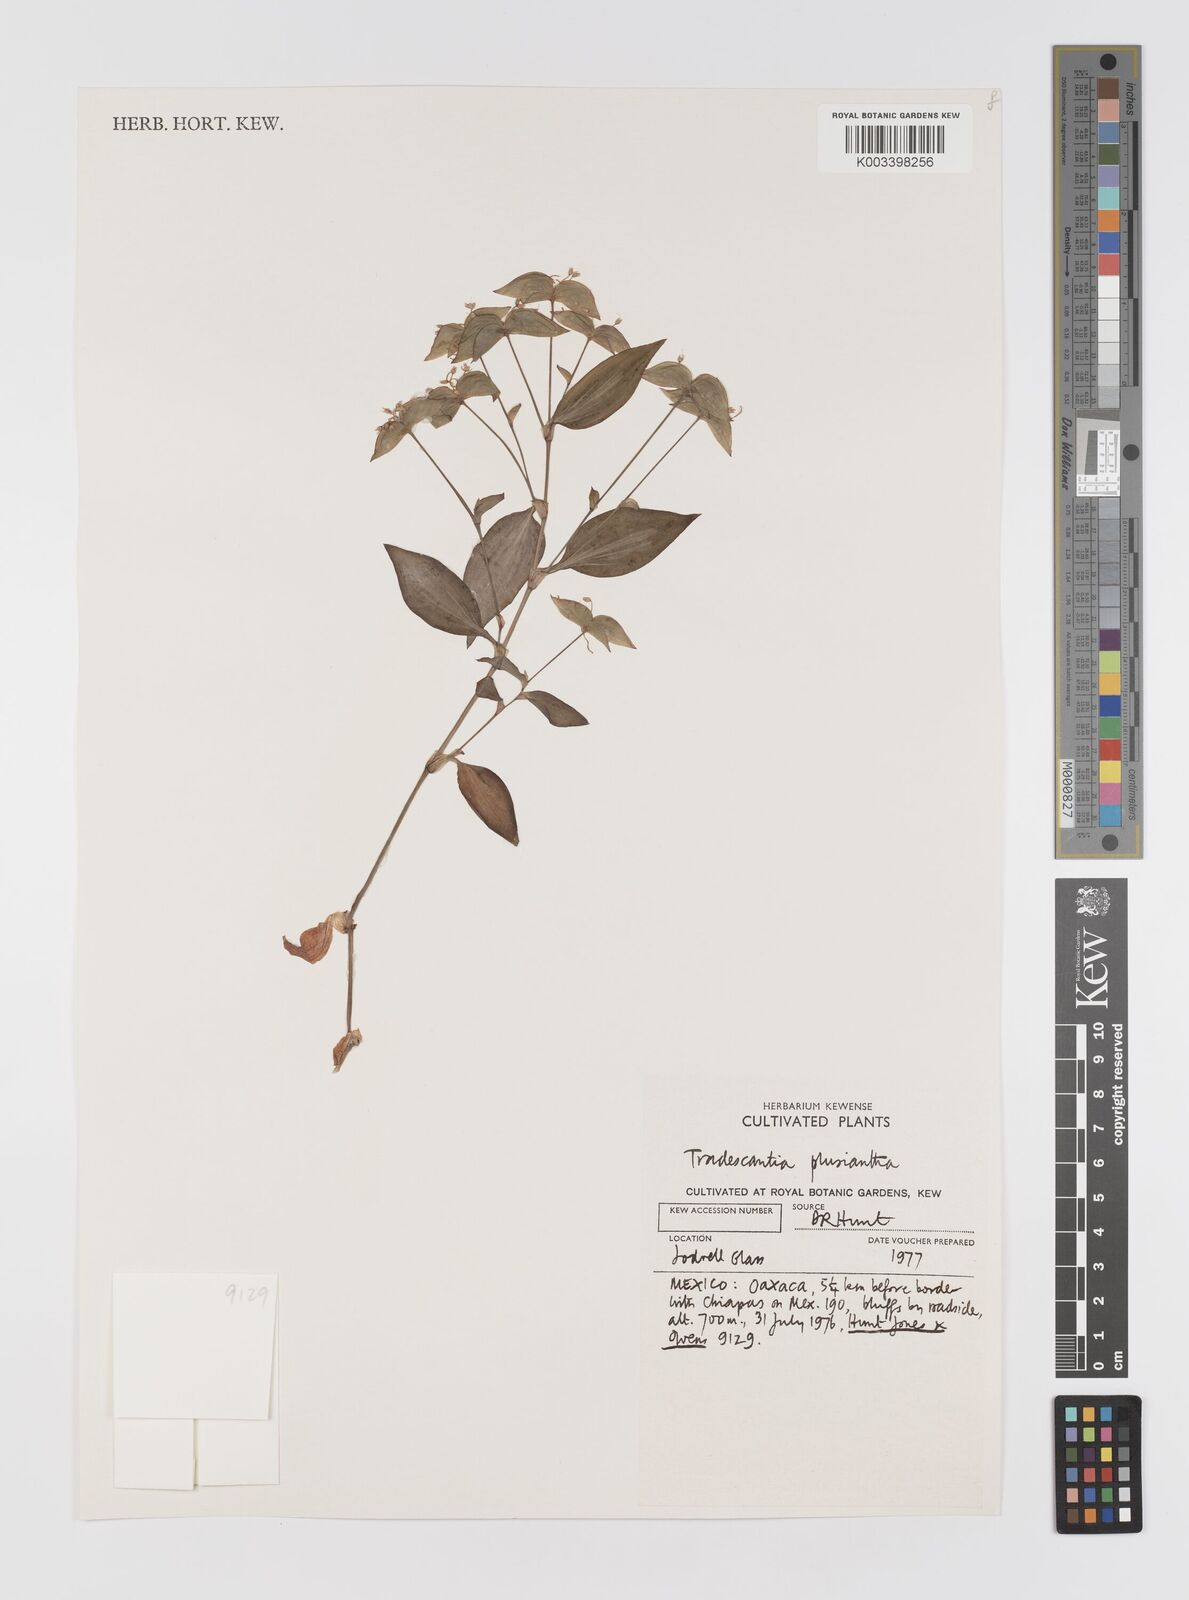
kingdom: Plantae
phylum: Tracheophyta
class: Liliopsida
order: Commelinales
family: Commelinaceae
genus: Tradescantia
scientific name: Tradescantia plusiantha
